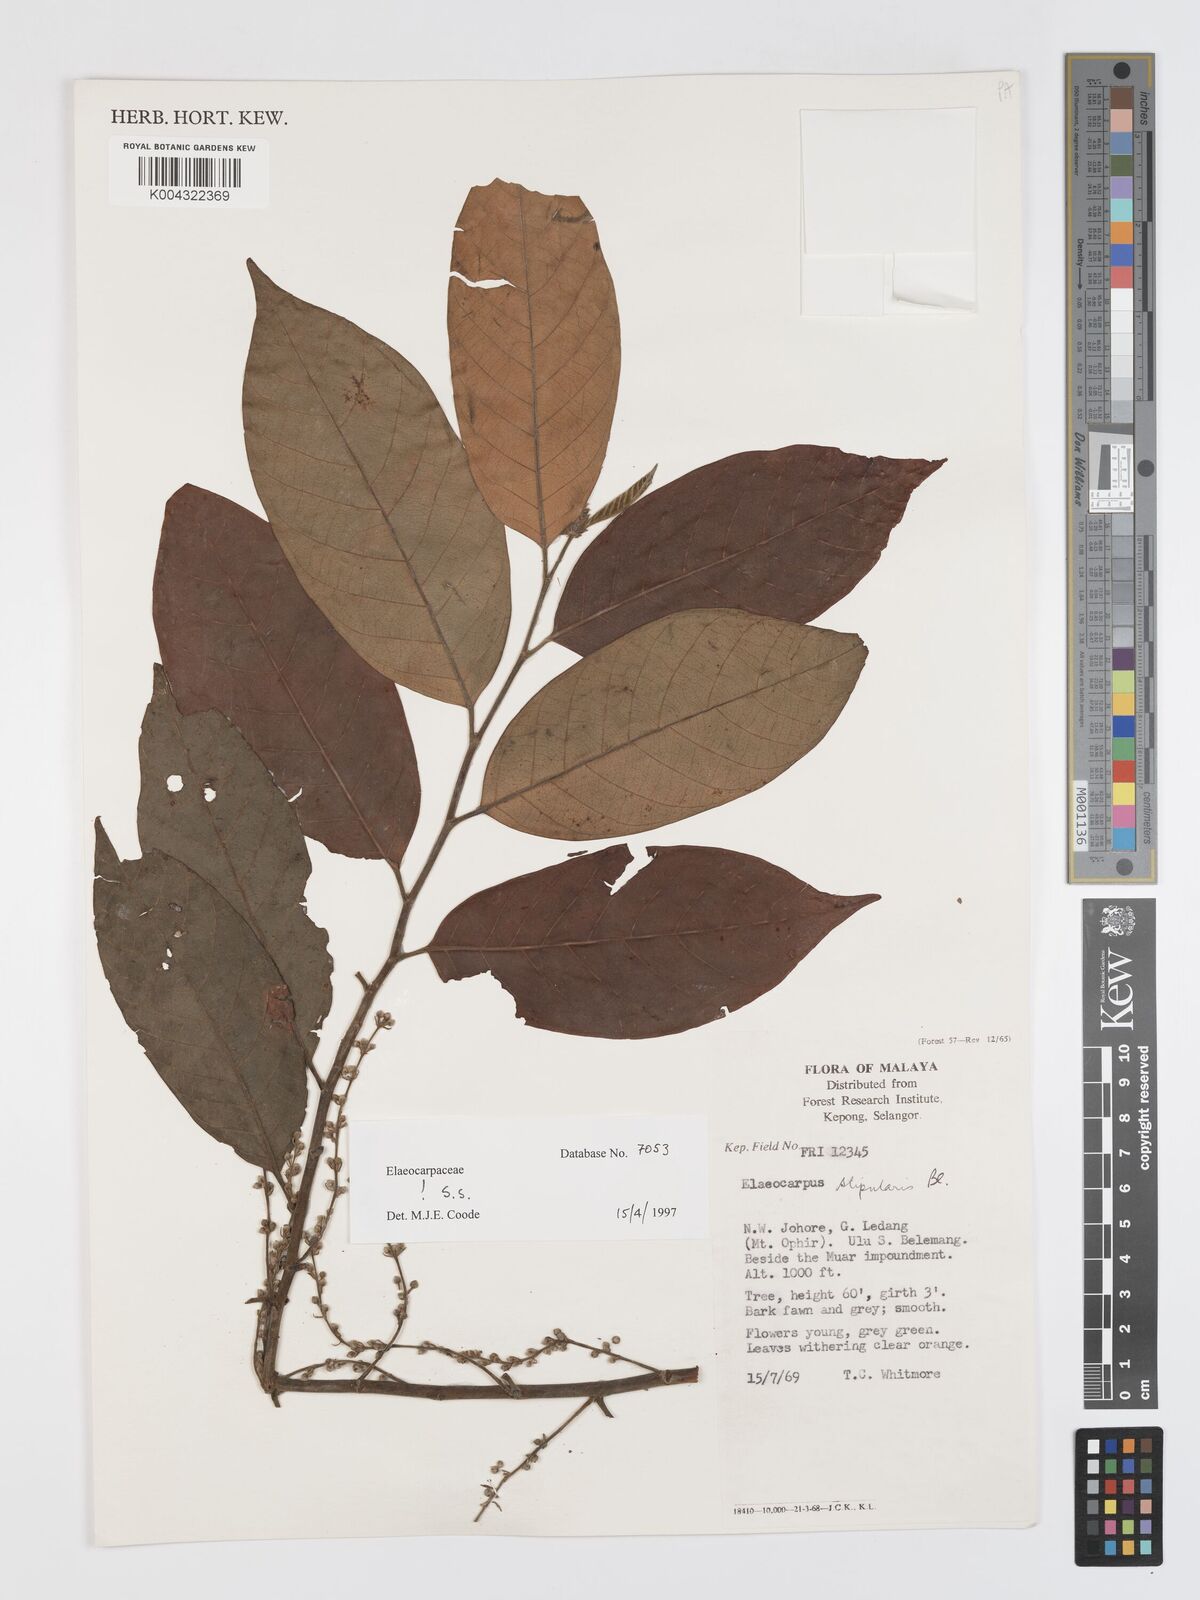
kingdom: Plantae
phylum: Tracheophyta
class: Magnoliopsida
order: Oxalidales
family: Elaeocarpaceae
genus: Elaeocarpus
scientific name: Elaeocarpus stipularis
